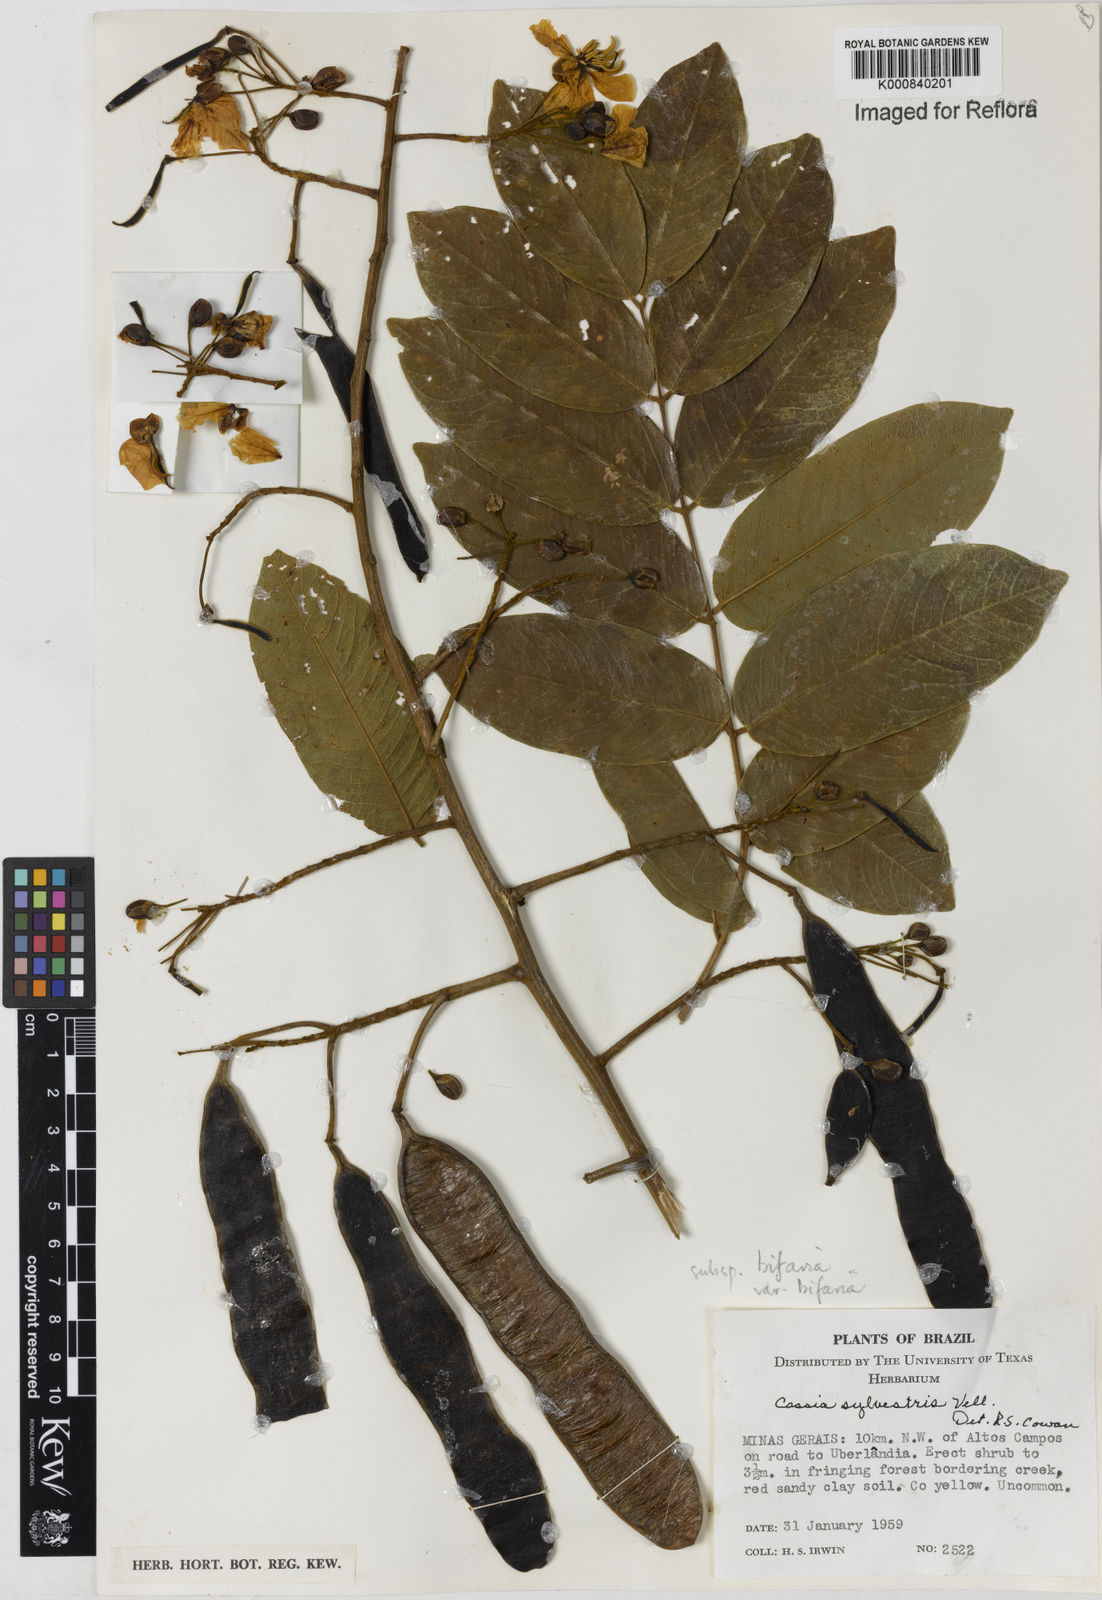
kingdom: Plantae
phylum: Tracheophyta
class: Magnoliopsida
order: Fabales
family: Fabaceae
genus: Senna
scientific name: Senna silvestris
